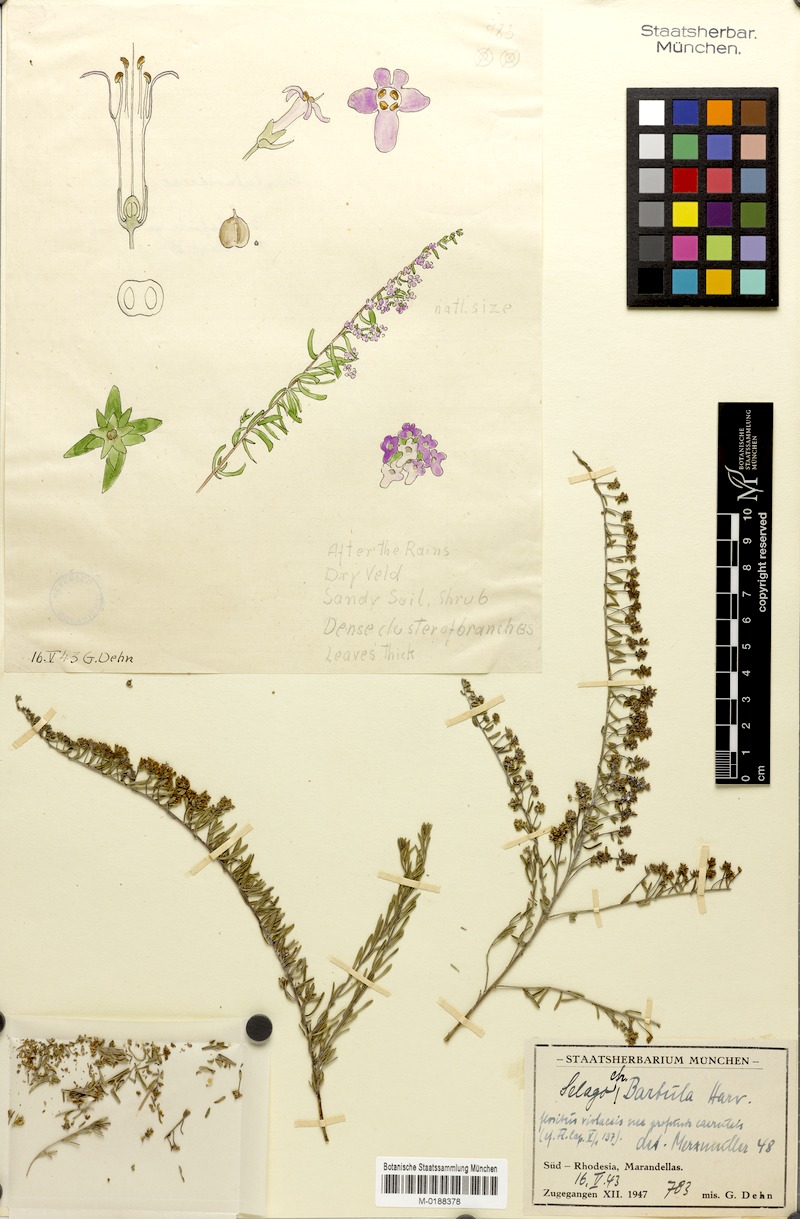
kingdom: Plantae
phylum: Tracheophyta
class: Magnoliopsida
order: Lamiales
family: Scrophulariaceae
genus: Selago
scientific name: Selago barbula
